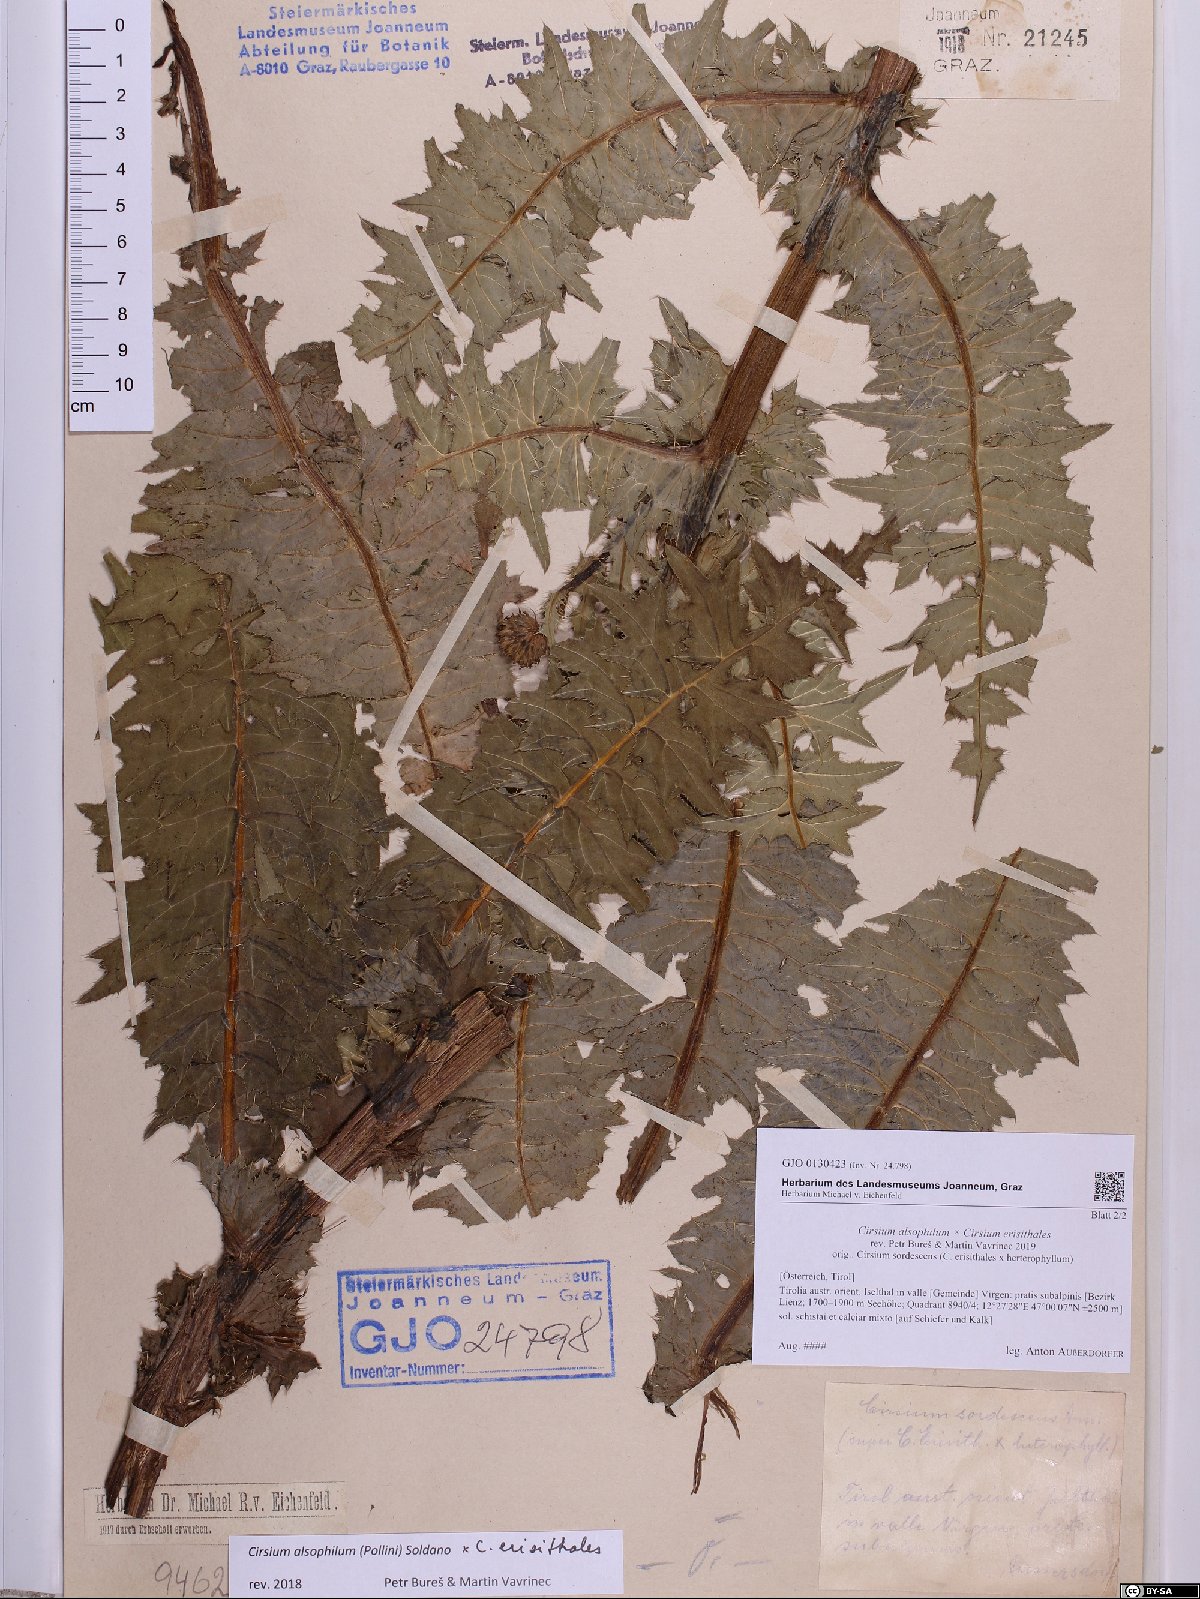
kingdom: Plantae
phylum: Tracheophyta
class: Magnoliopsida
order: Asterales
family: Asteraceae
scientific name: Asteraceae
